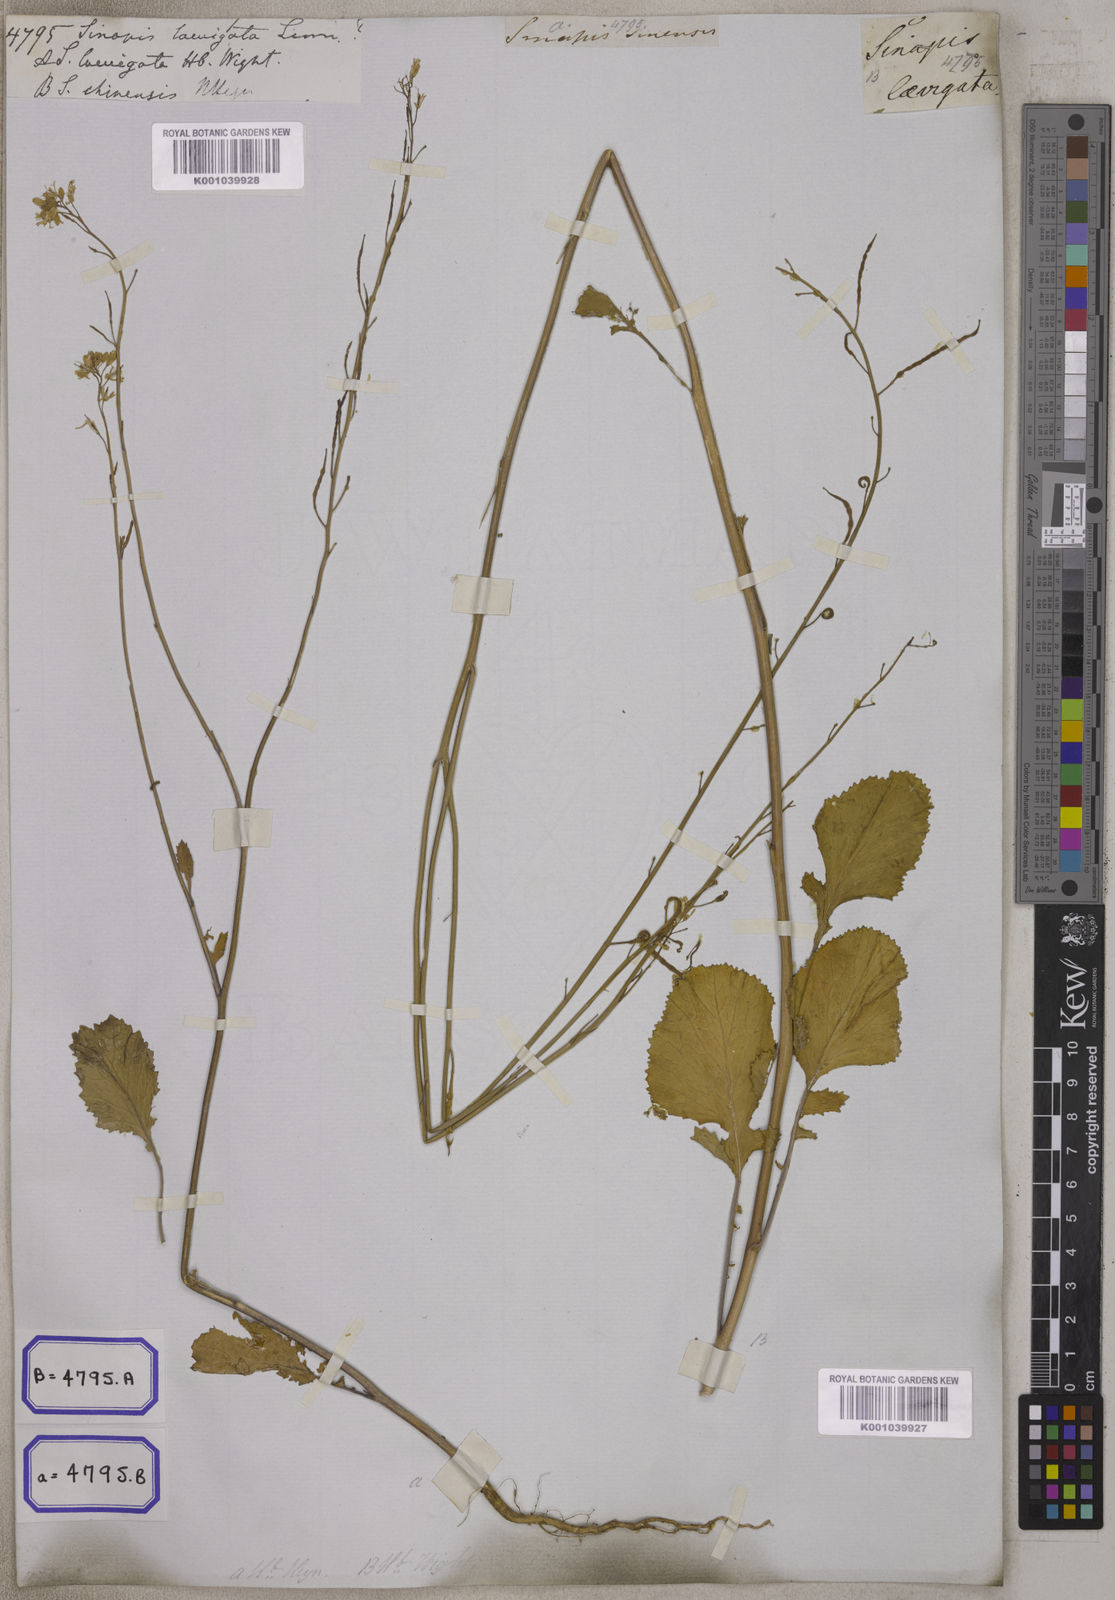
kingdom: Plantae
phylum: Tracheophyta
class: Magnoliopsida
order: Brassicales
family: Brassicaceae
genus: Erucastrum
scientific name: Erucastrum virgatum
